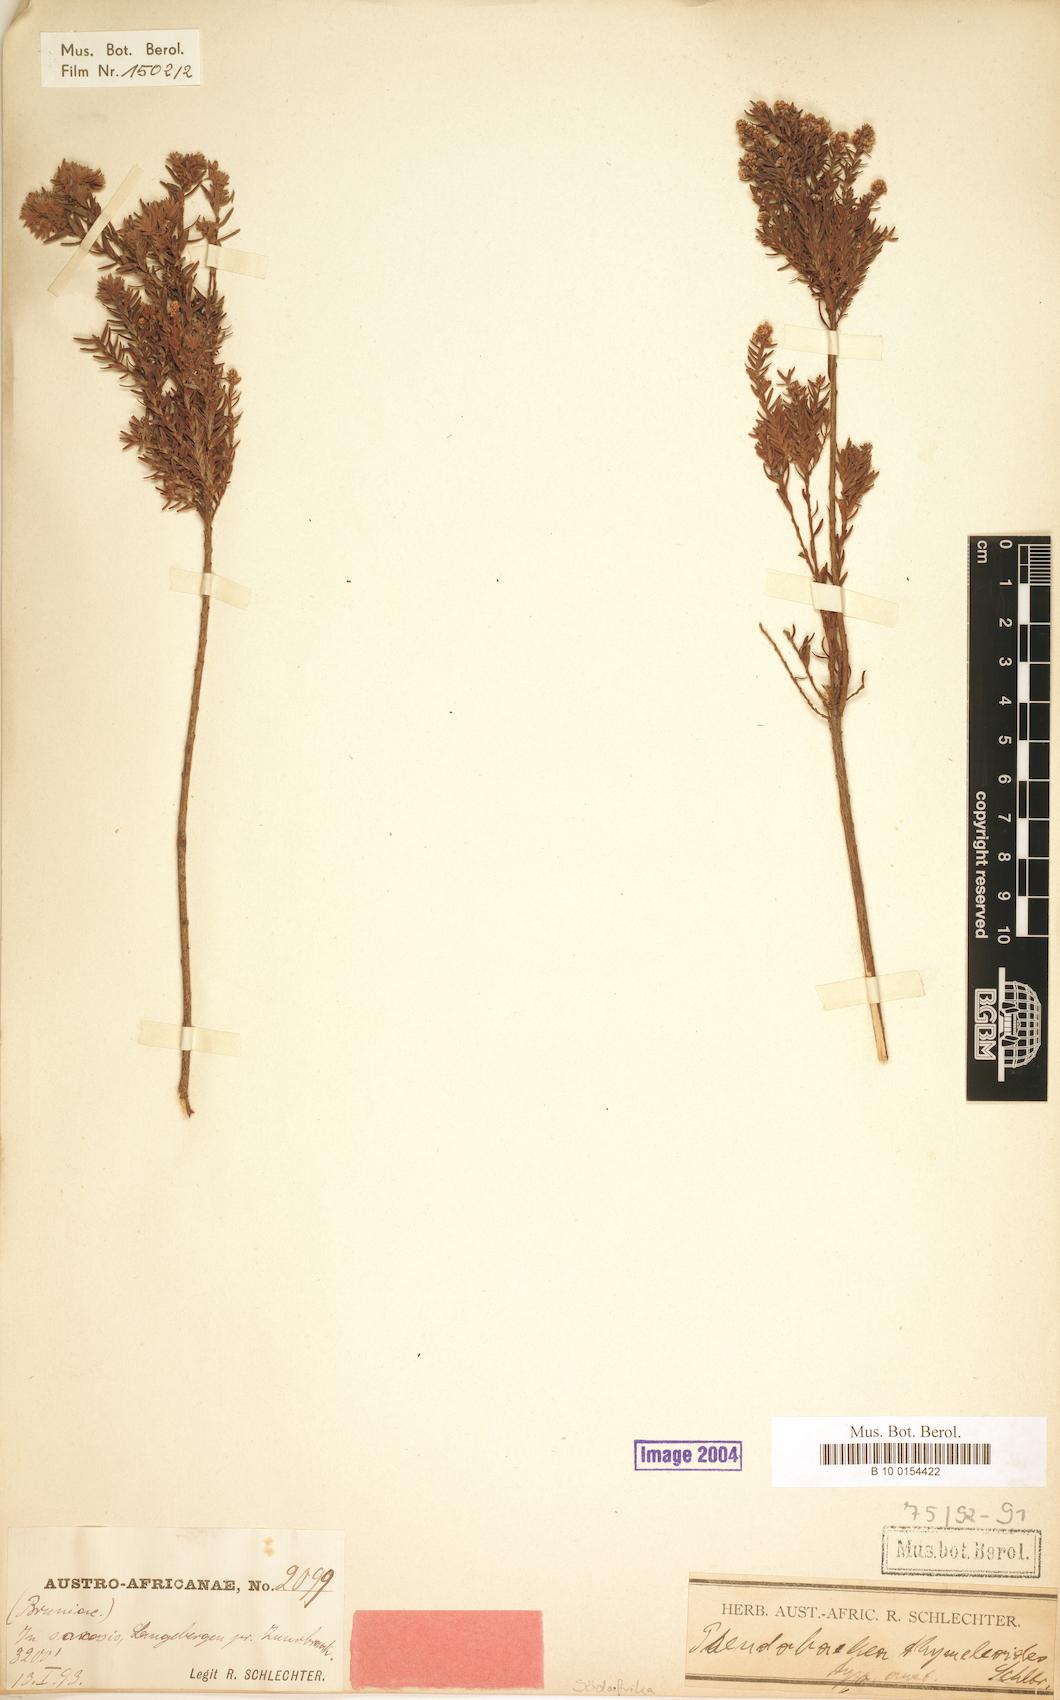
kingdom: Plantae
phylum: Tracheophyta
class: Magnoliopsida
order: Bruniales
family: Bruniaceae
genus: Brunia
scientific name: Brunia cordata
